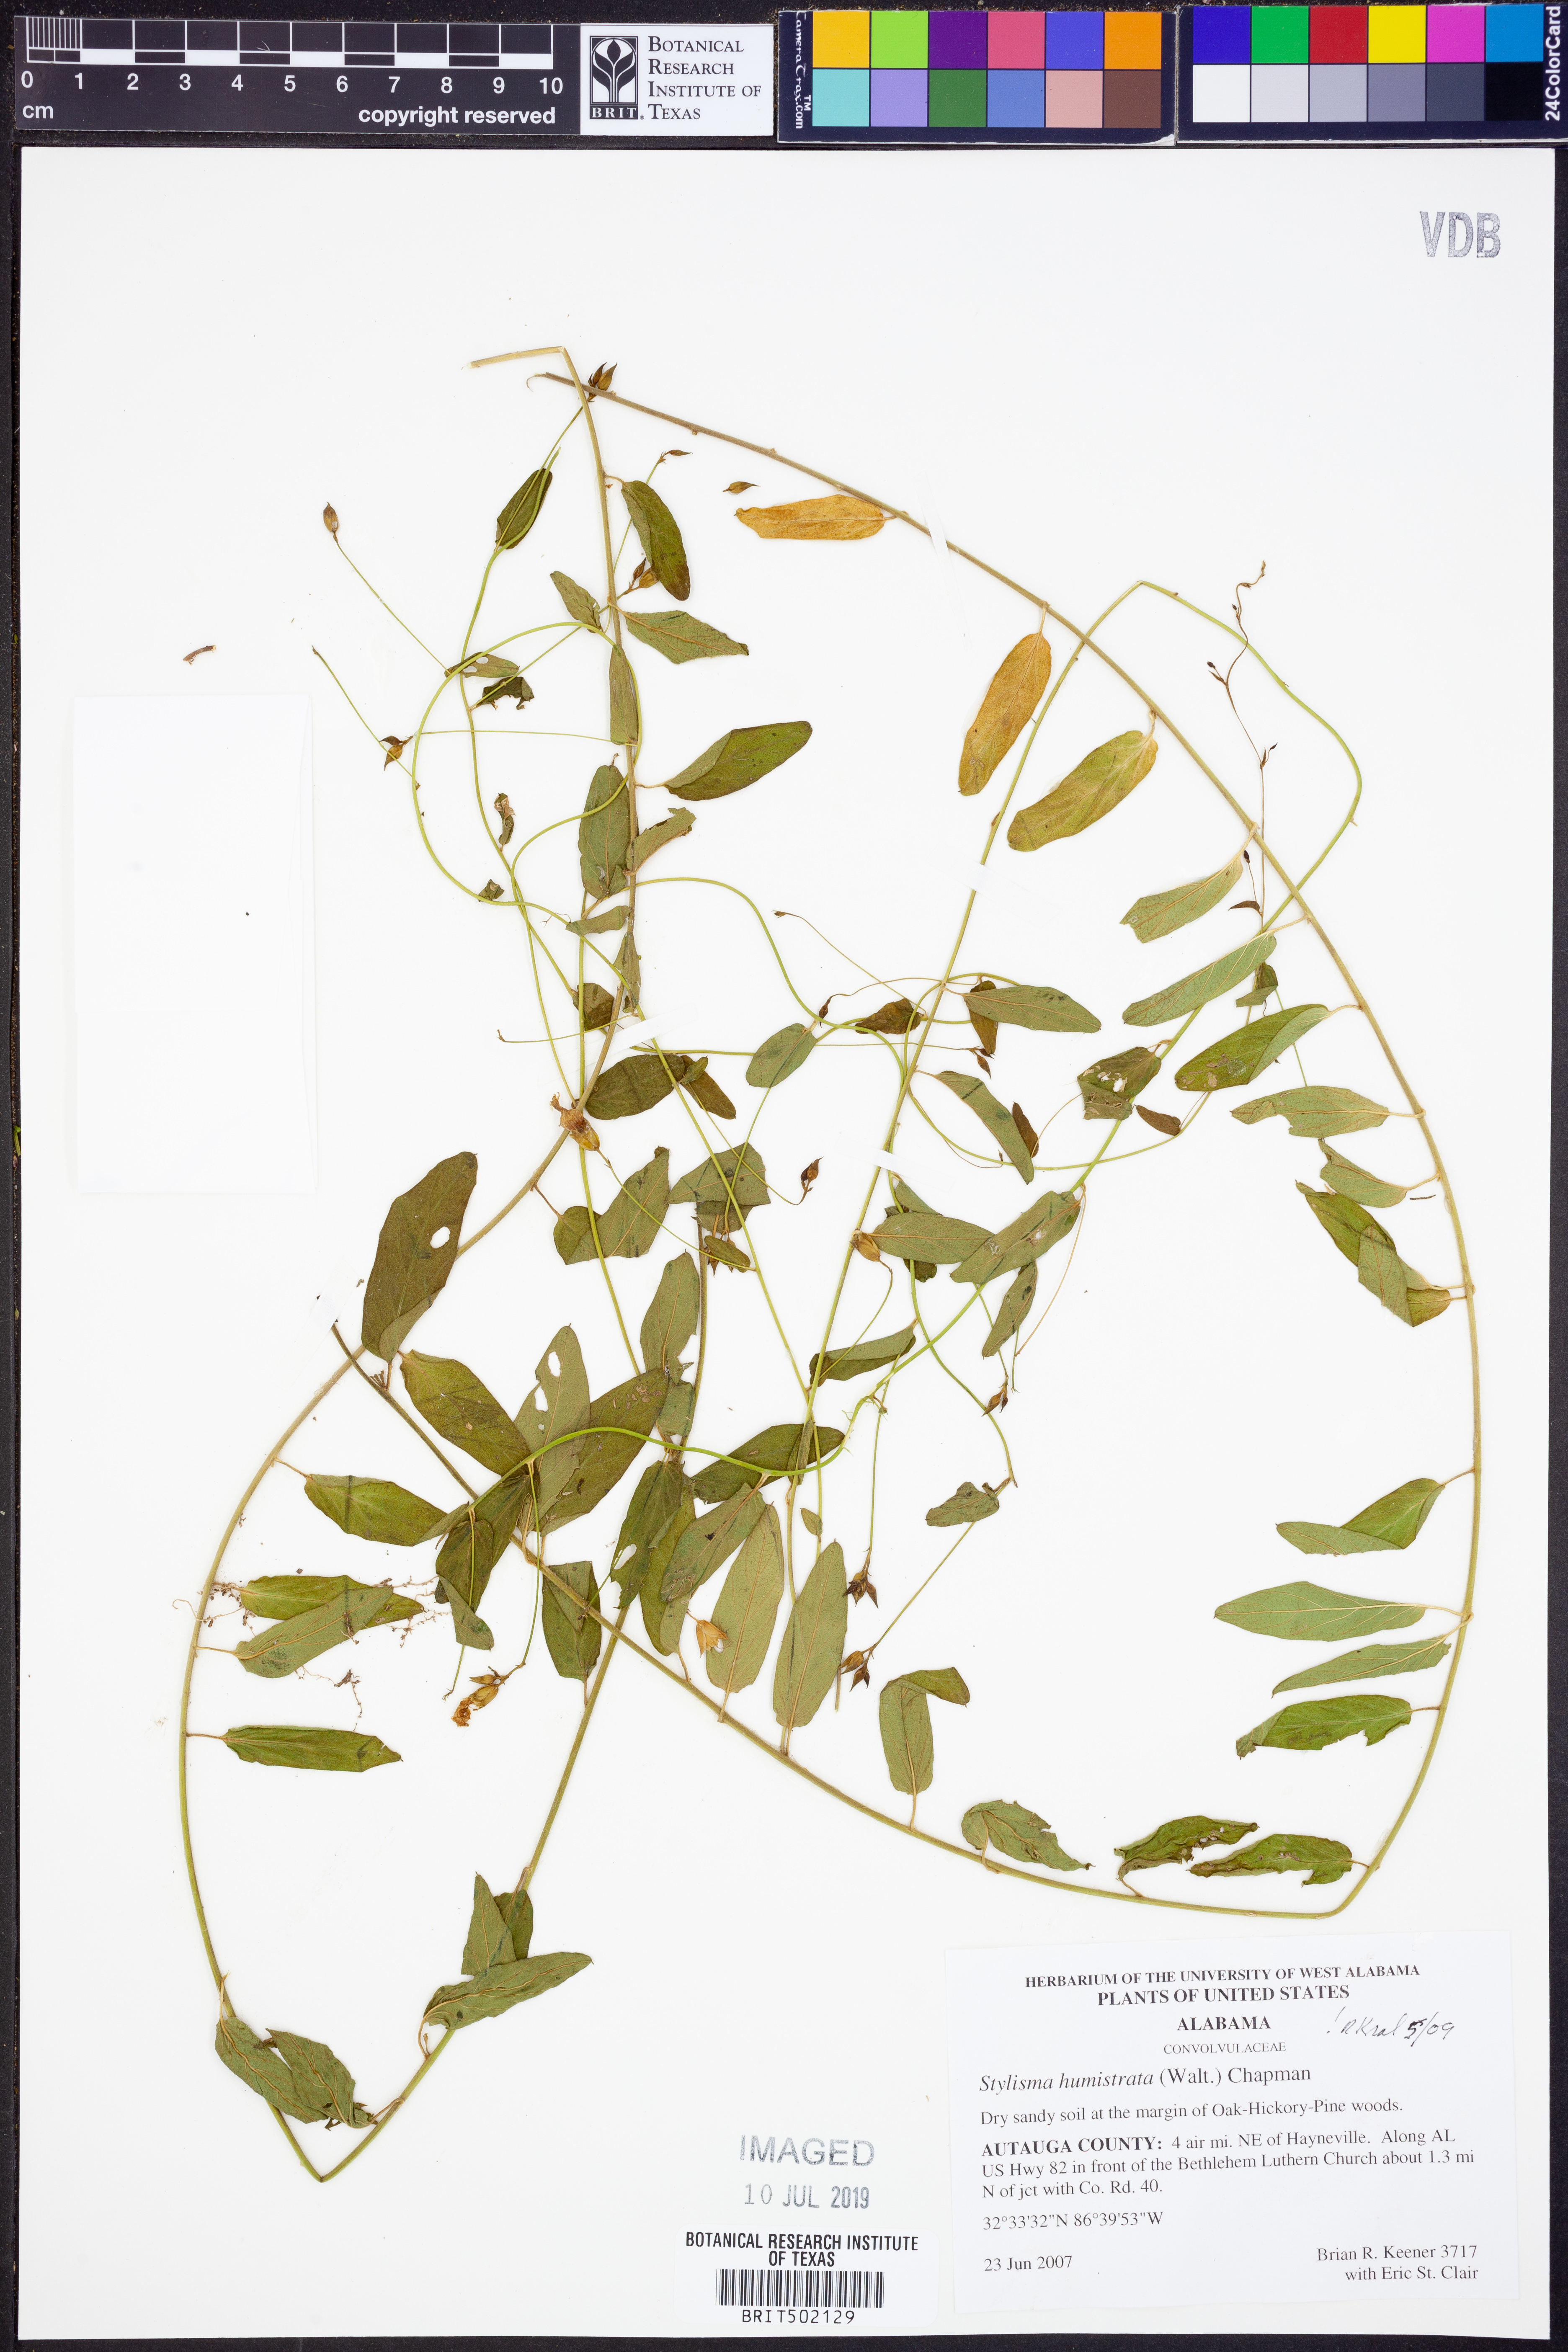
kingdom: Plantae
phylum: Tracheophyta
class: Magnoliopsida
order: Solanales
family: Convolvulaceae
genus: Stylisma
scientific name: Stylisma humistrata
